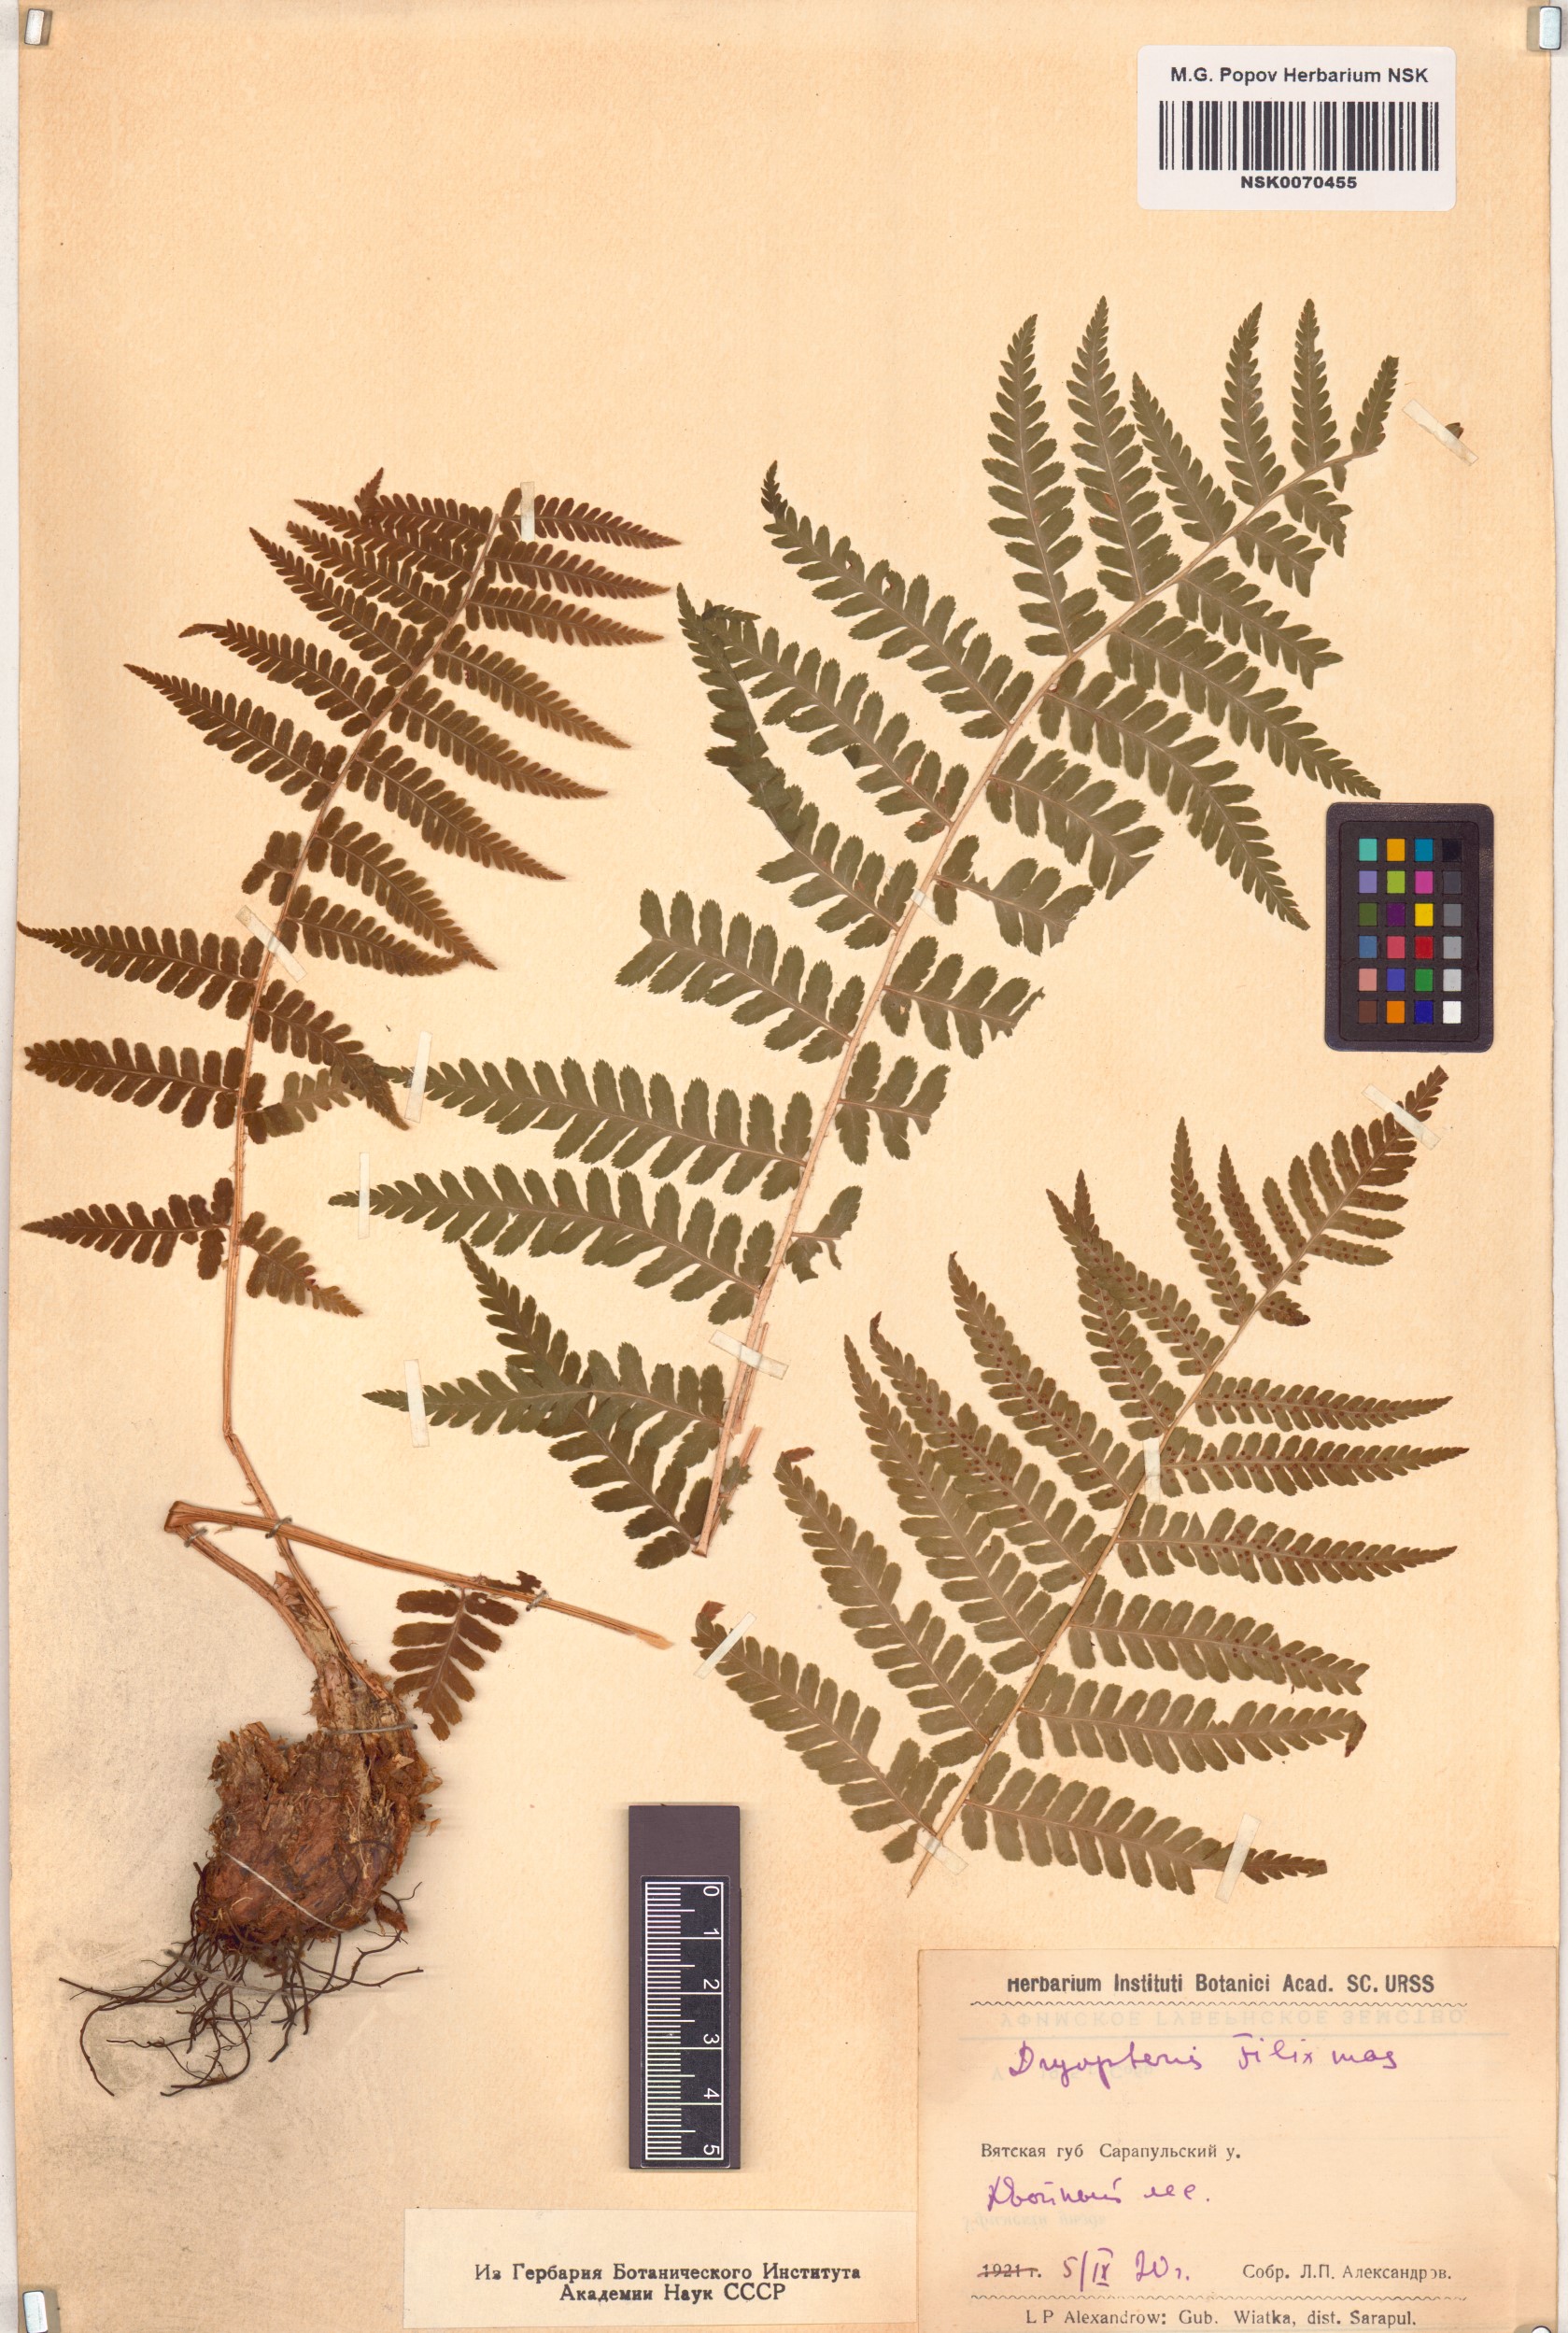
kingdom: Plantae
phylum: Tracheophyta
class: Polypodiopsida
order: Polypodiales
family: Dryopteridaceae
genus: Dryopteris
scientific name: Dryopteris filix-mas
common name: Male fern
